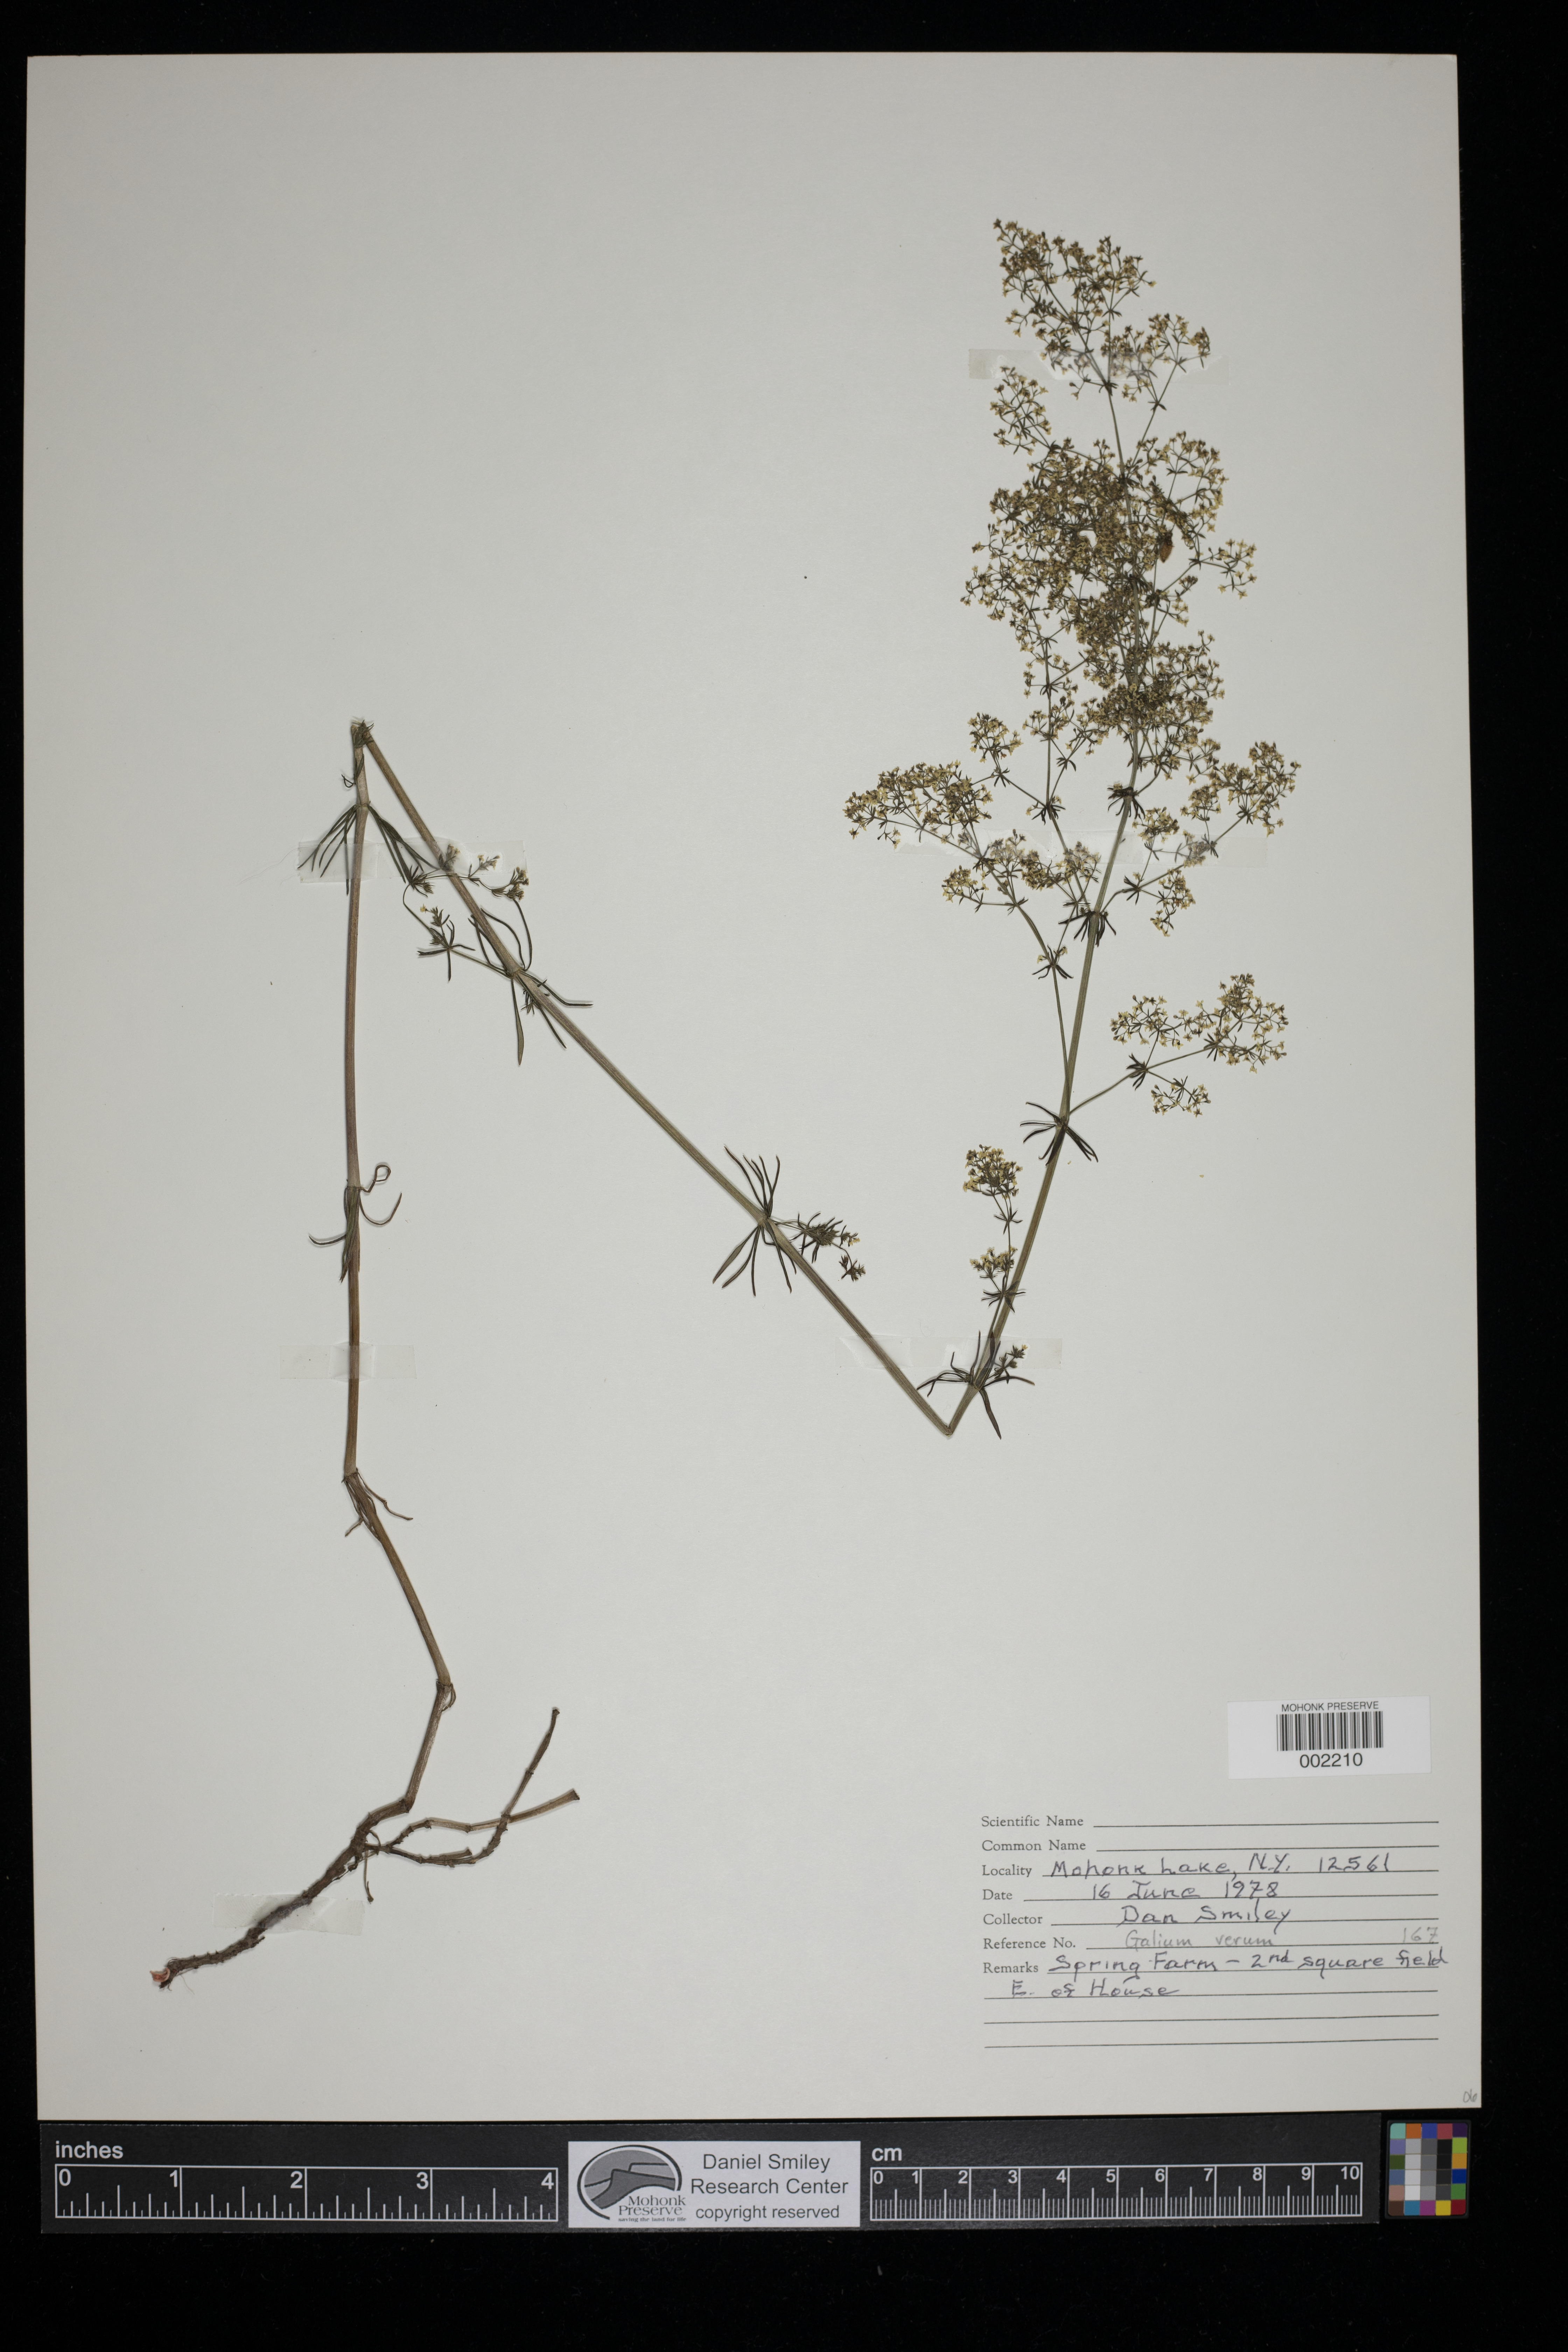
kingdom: Plantae
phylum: Tracheophyta
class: Magnoliopsida
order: Gentianales
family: Rubiaceae
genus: Galium
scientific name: Galium verum
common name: Lady's bedstraw
